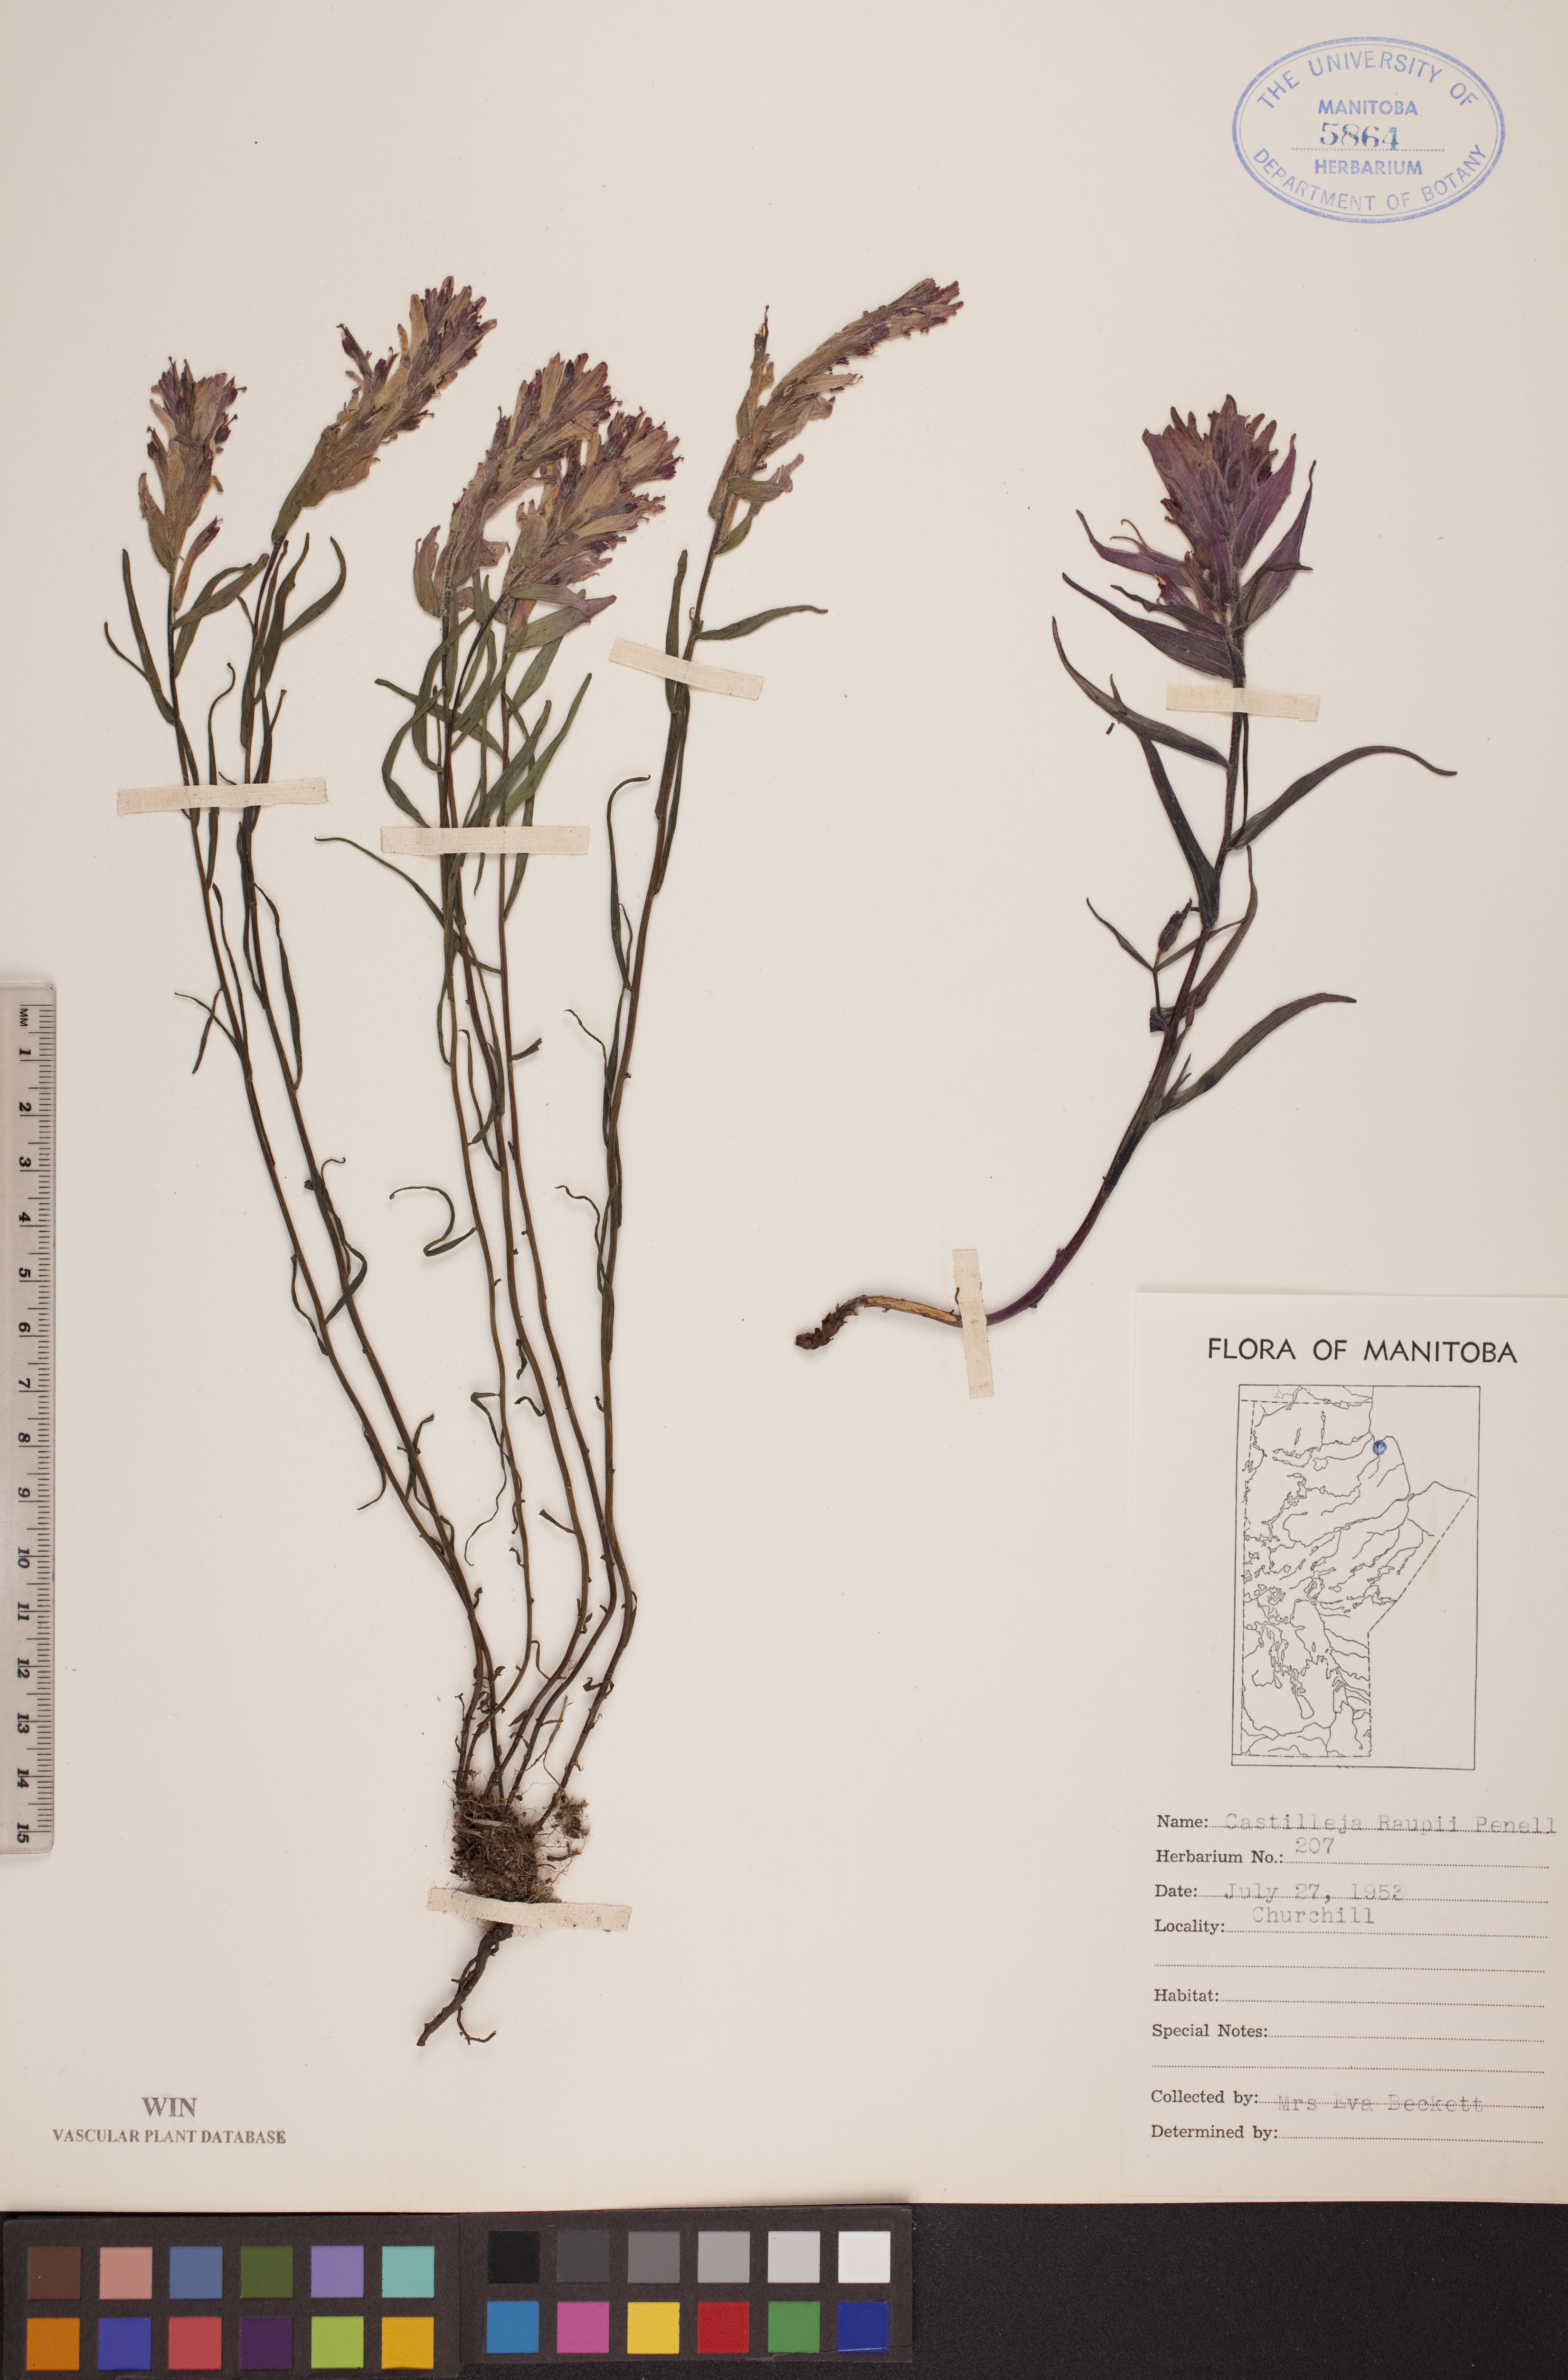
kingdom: Plantae
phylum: Tracheophyta
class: Magnoliopsida
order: Lamiales
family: Orobanchaceae
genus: Castilleja
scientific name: Castilleja raupii
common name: Raup's paintbrush
